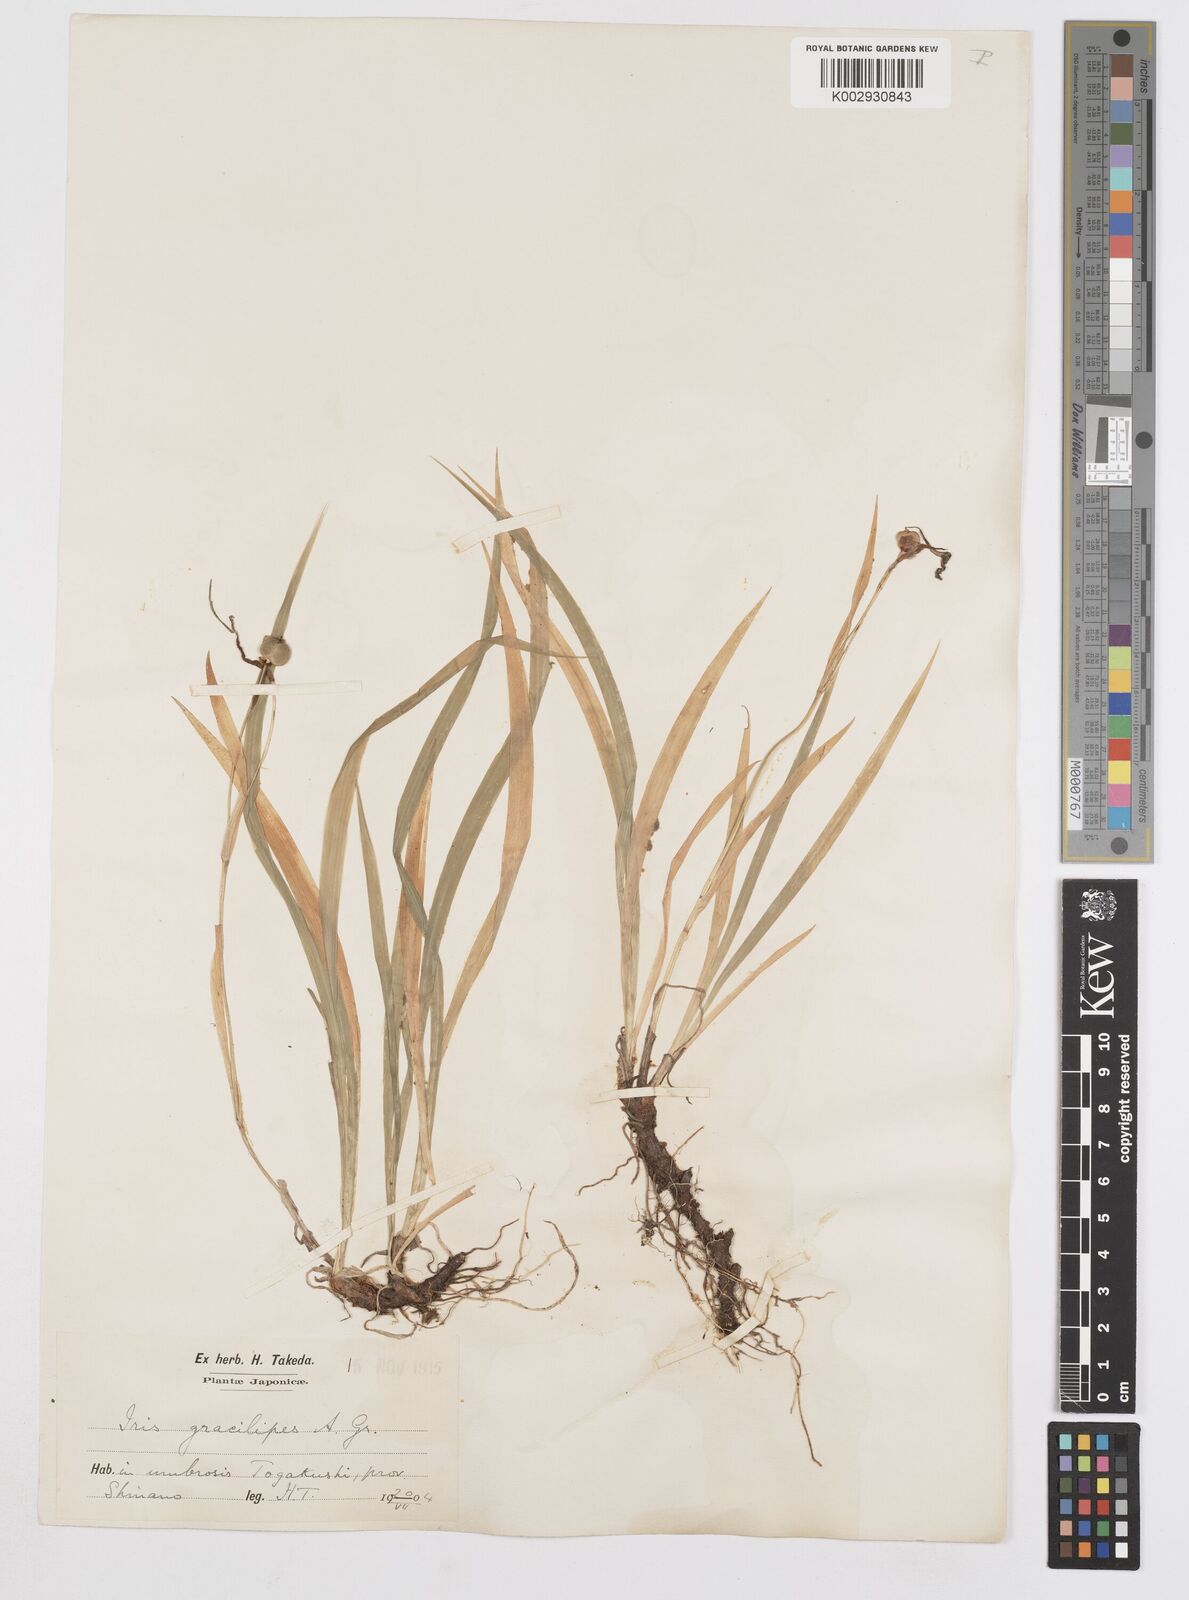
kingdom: Plantae
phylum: Tracheophyta
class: Liliopsida
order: Asparagales
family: Iridaceae
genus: Iris
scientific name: Iris gracilipes
